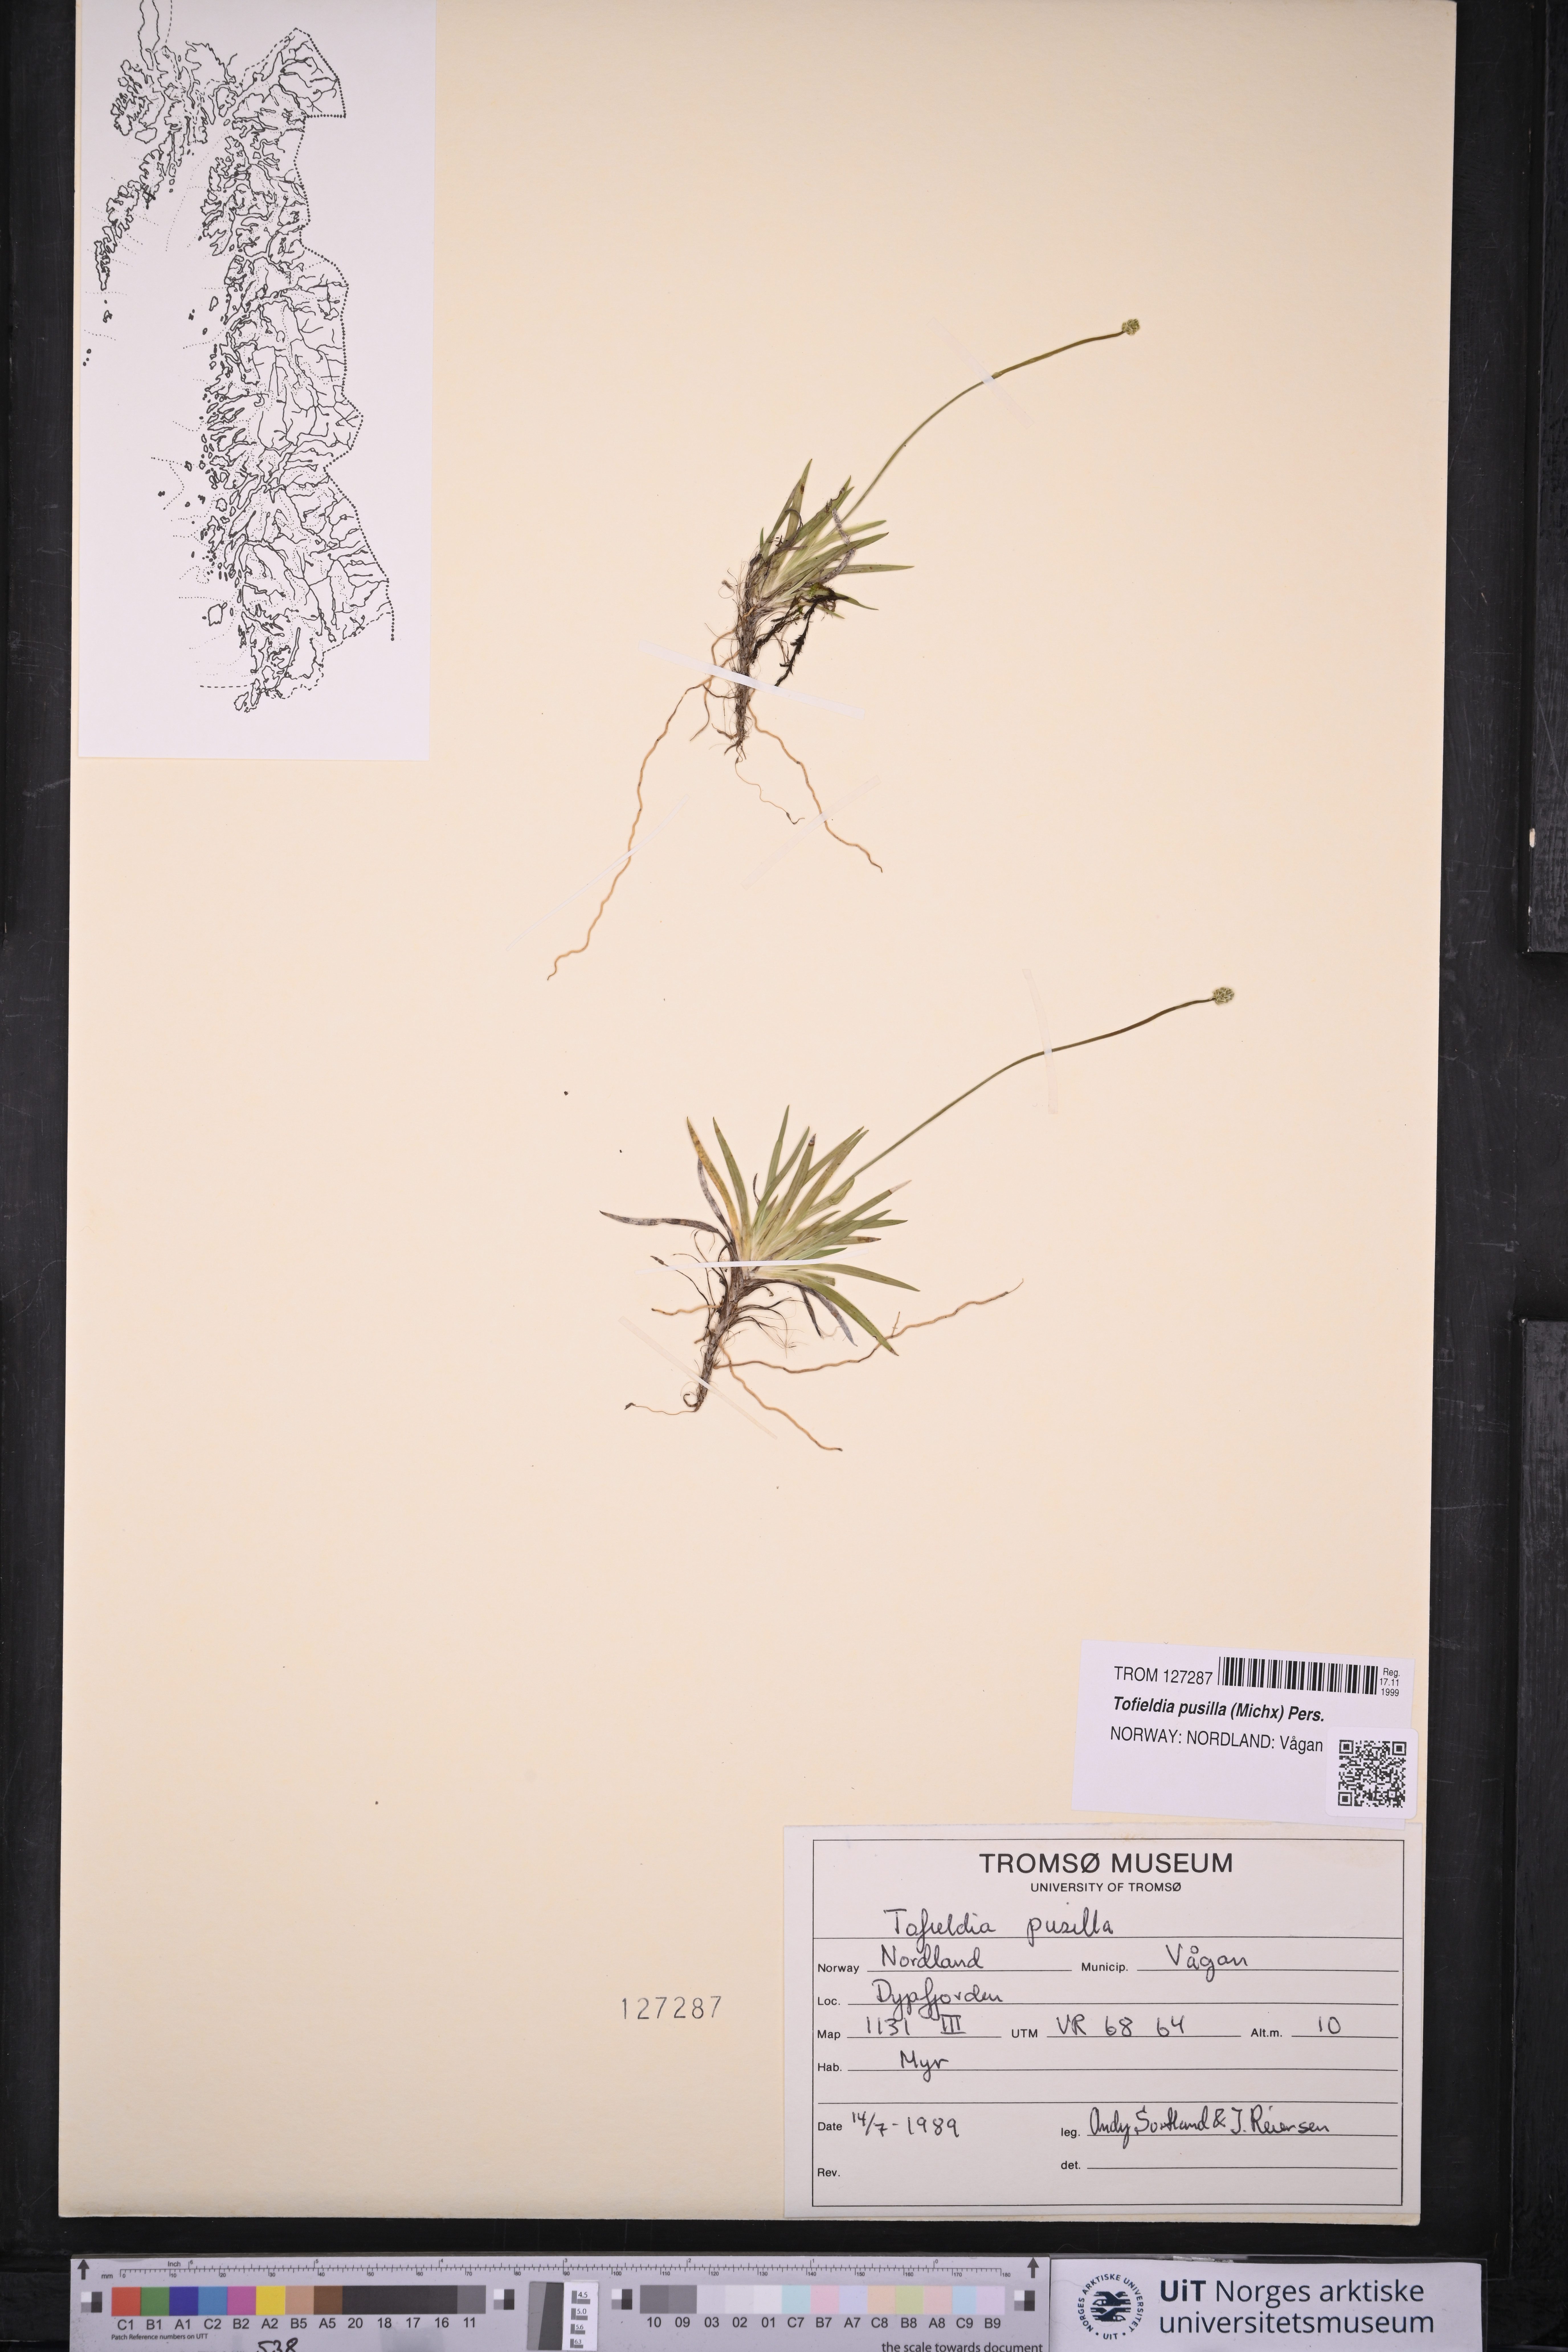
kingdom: Plantae
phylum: Tracheophyta
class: Liliopsida
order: Alismatales
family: Tofieldiaceae
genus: Tofieldia
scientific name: Tofieldia pusilla
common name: Scottish false asphodel
